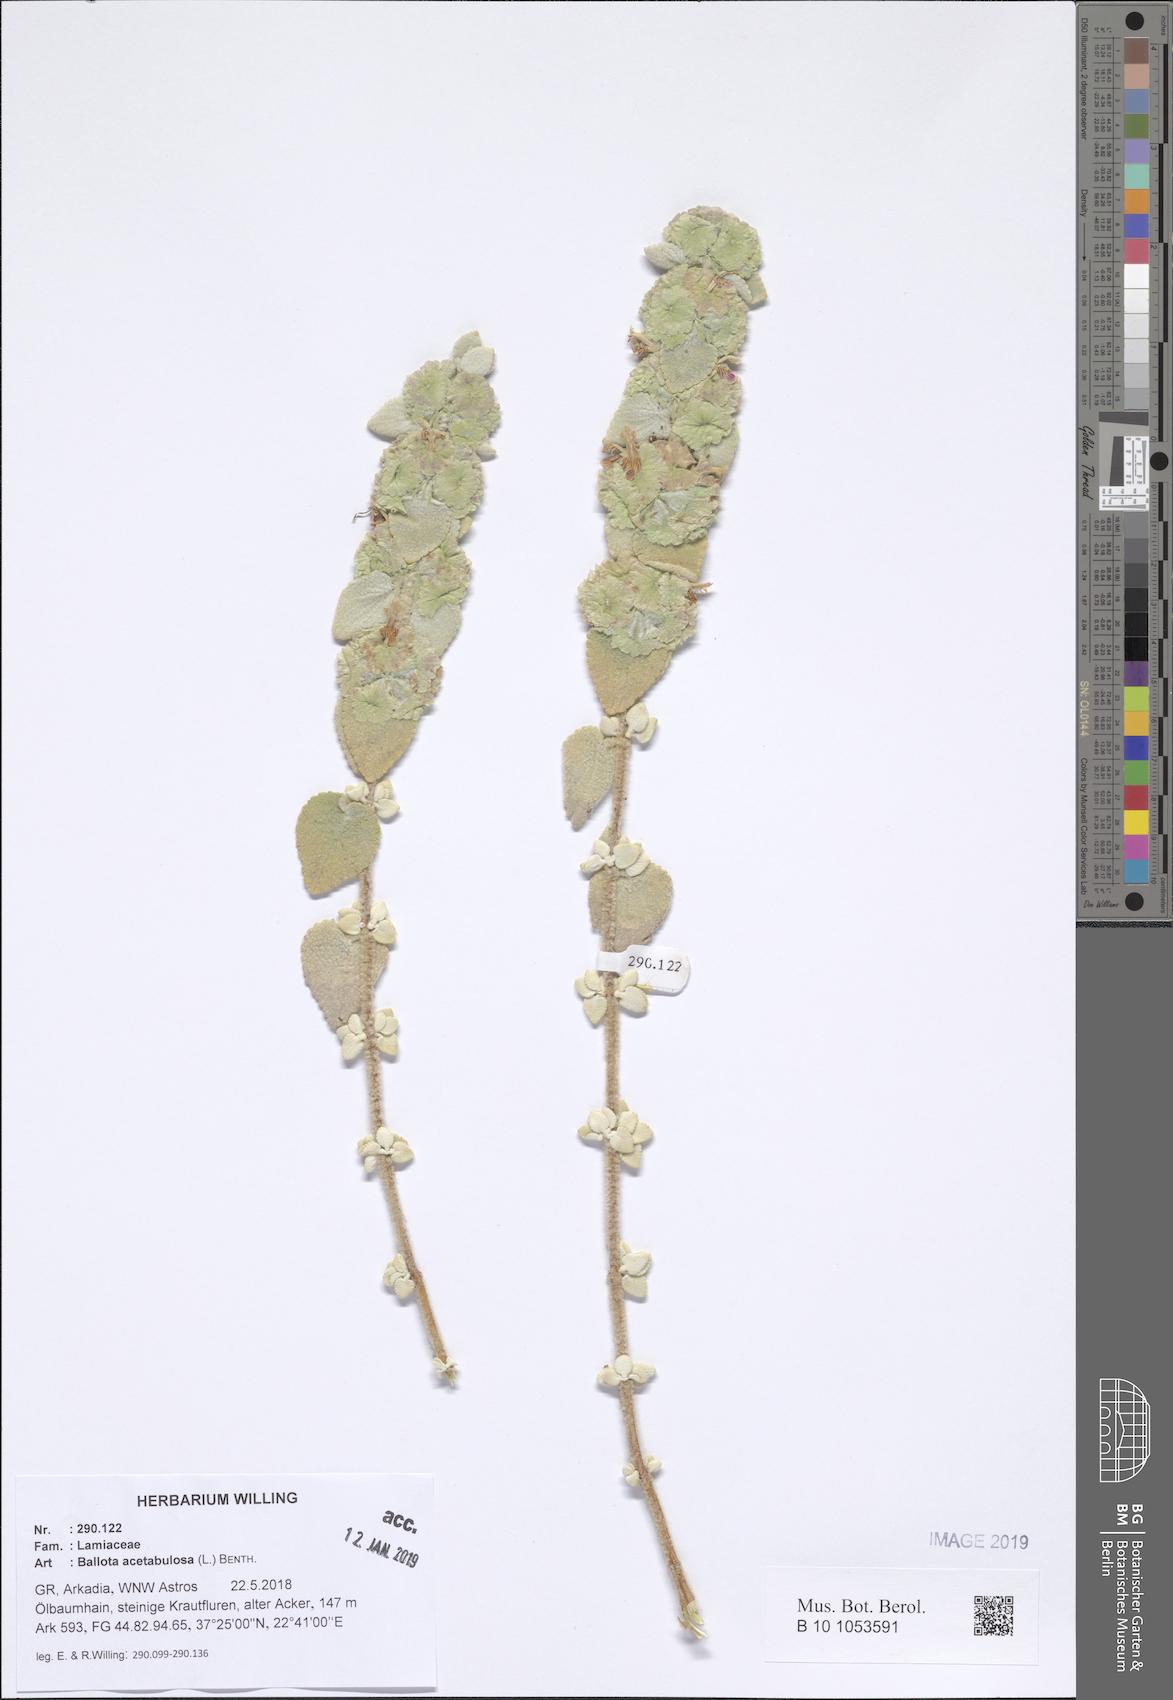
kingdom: Plantae
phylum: Tracheophyta
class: Magnoliopsida
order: Lamiales
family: Lamiaceae
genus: Pseudodictamnus
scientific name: Pseudodictamnus acetabulosus
